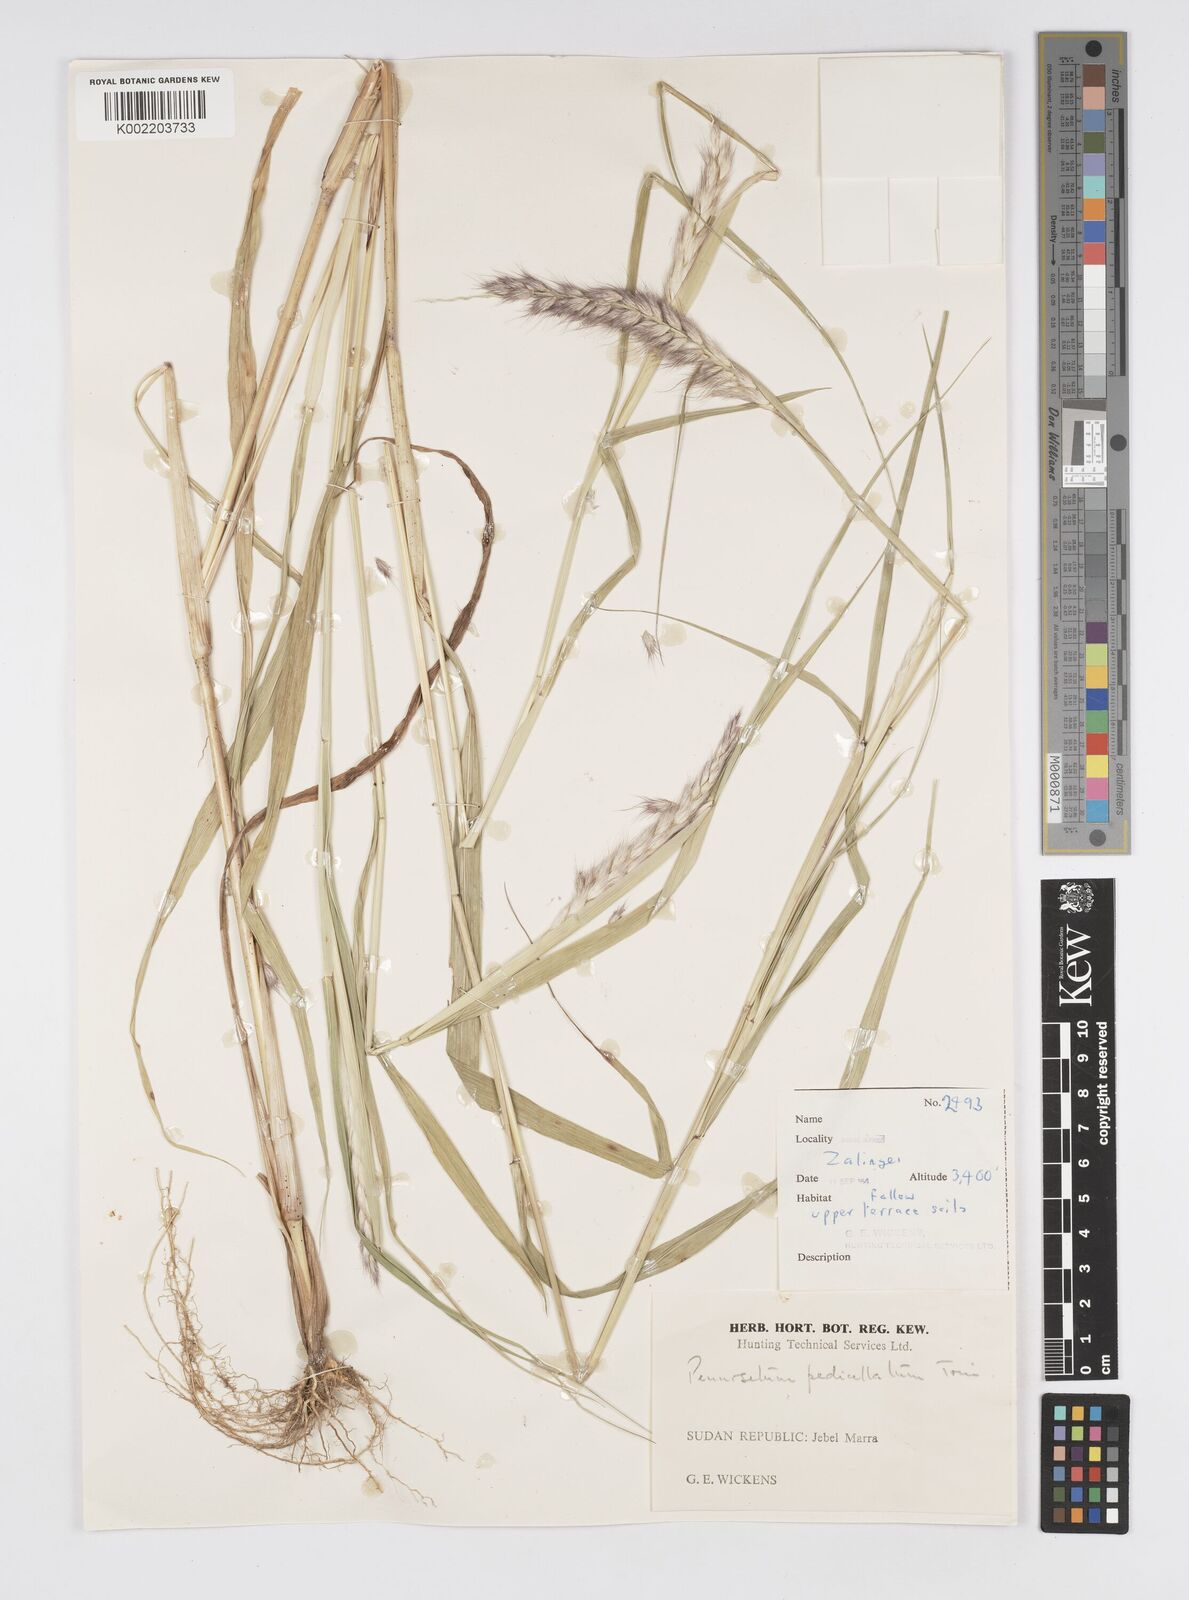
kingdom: Plantae
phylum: Tracheophyta
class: Liliopsida
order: Poales
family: Poaceae
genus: Cenchrus
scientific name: Cenchrus pedicellatus
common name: Hairy fountain grass
